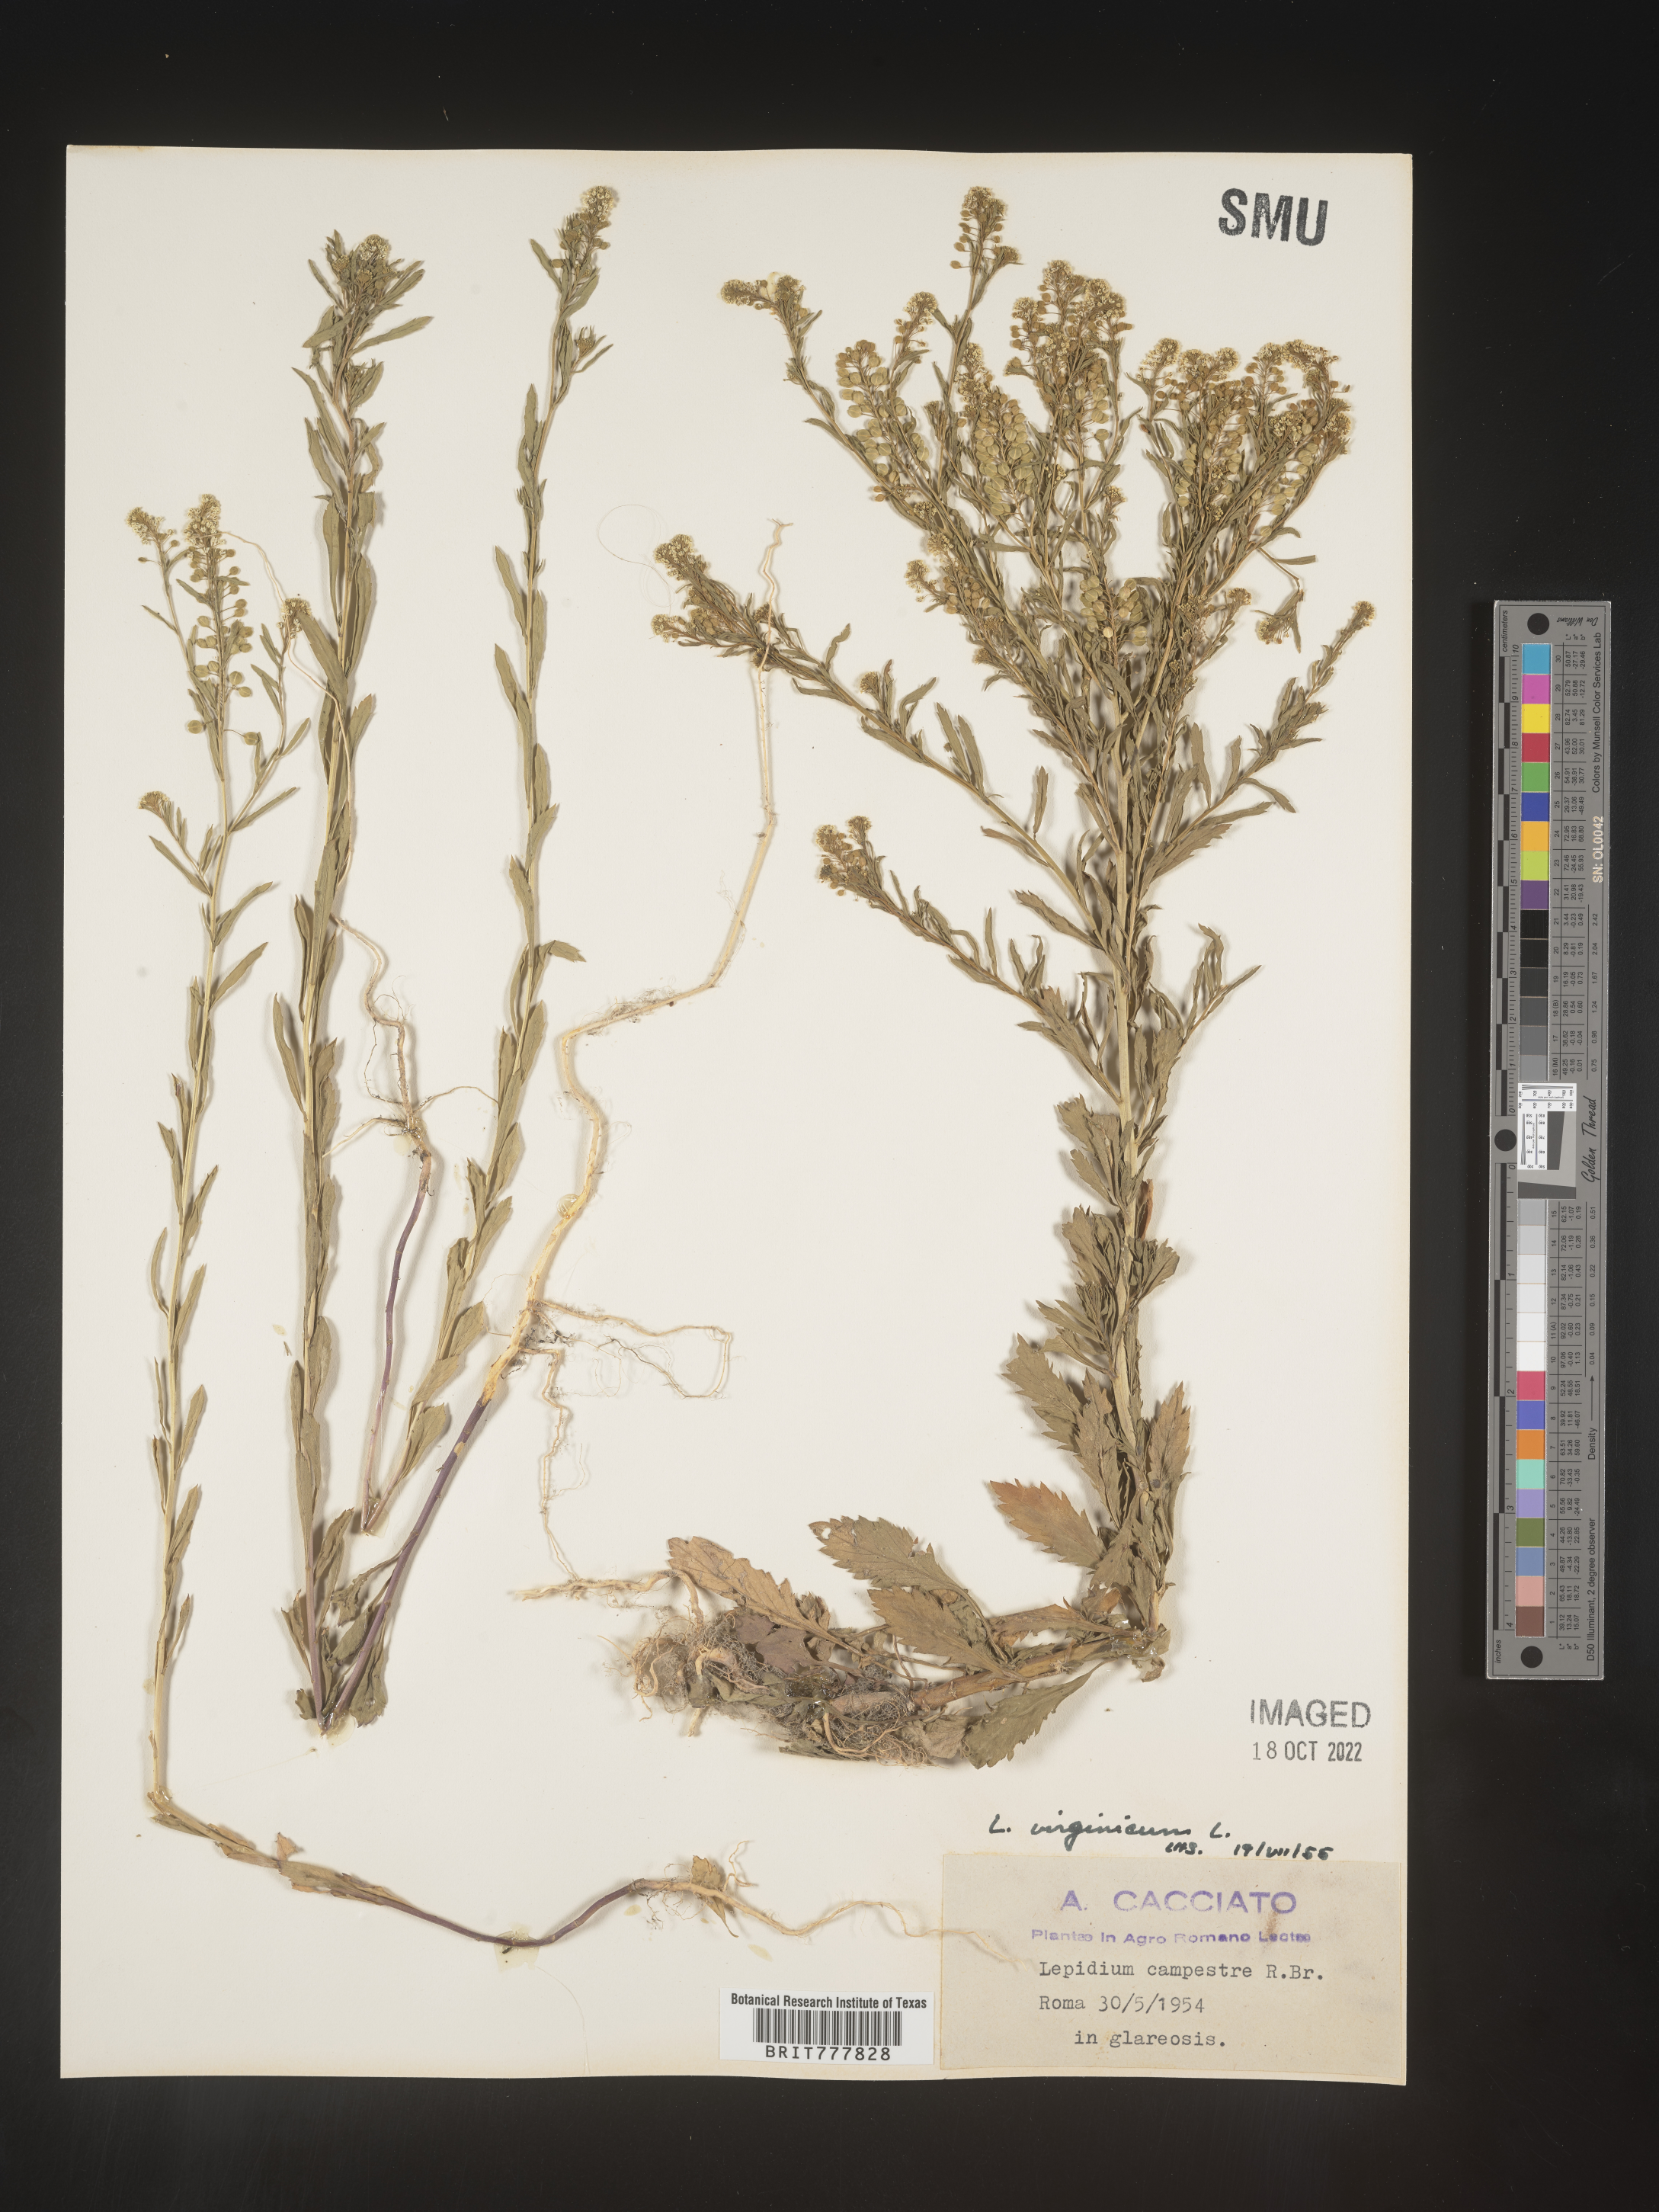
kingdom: Plantae
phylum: Tracheophyta
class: Magnoliopsida
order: Brassicales
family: Brassicaceae
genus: Lepidium
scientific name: Lepidium
